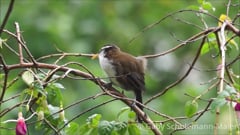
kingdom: Animalia
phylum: Chordata
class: Aves
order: Passeriformes
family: Timaliidae
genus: Pomatorhinus
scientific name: Pomatorhinus melanurus
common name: Sri lanka scimitar-babbler
